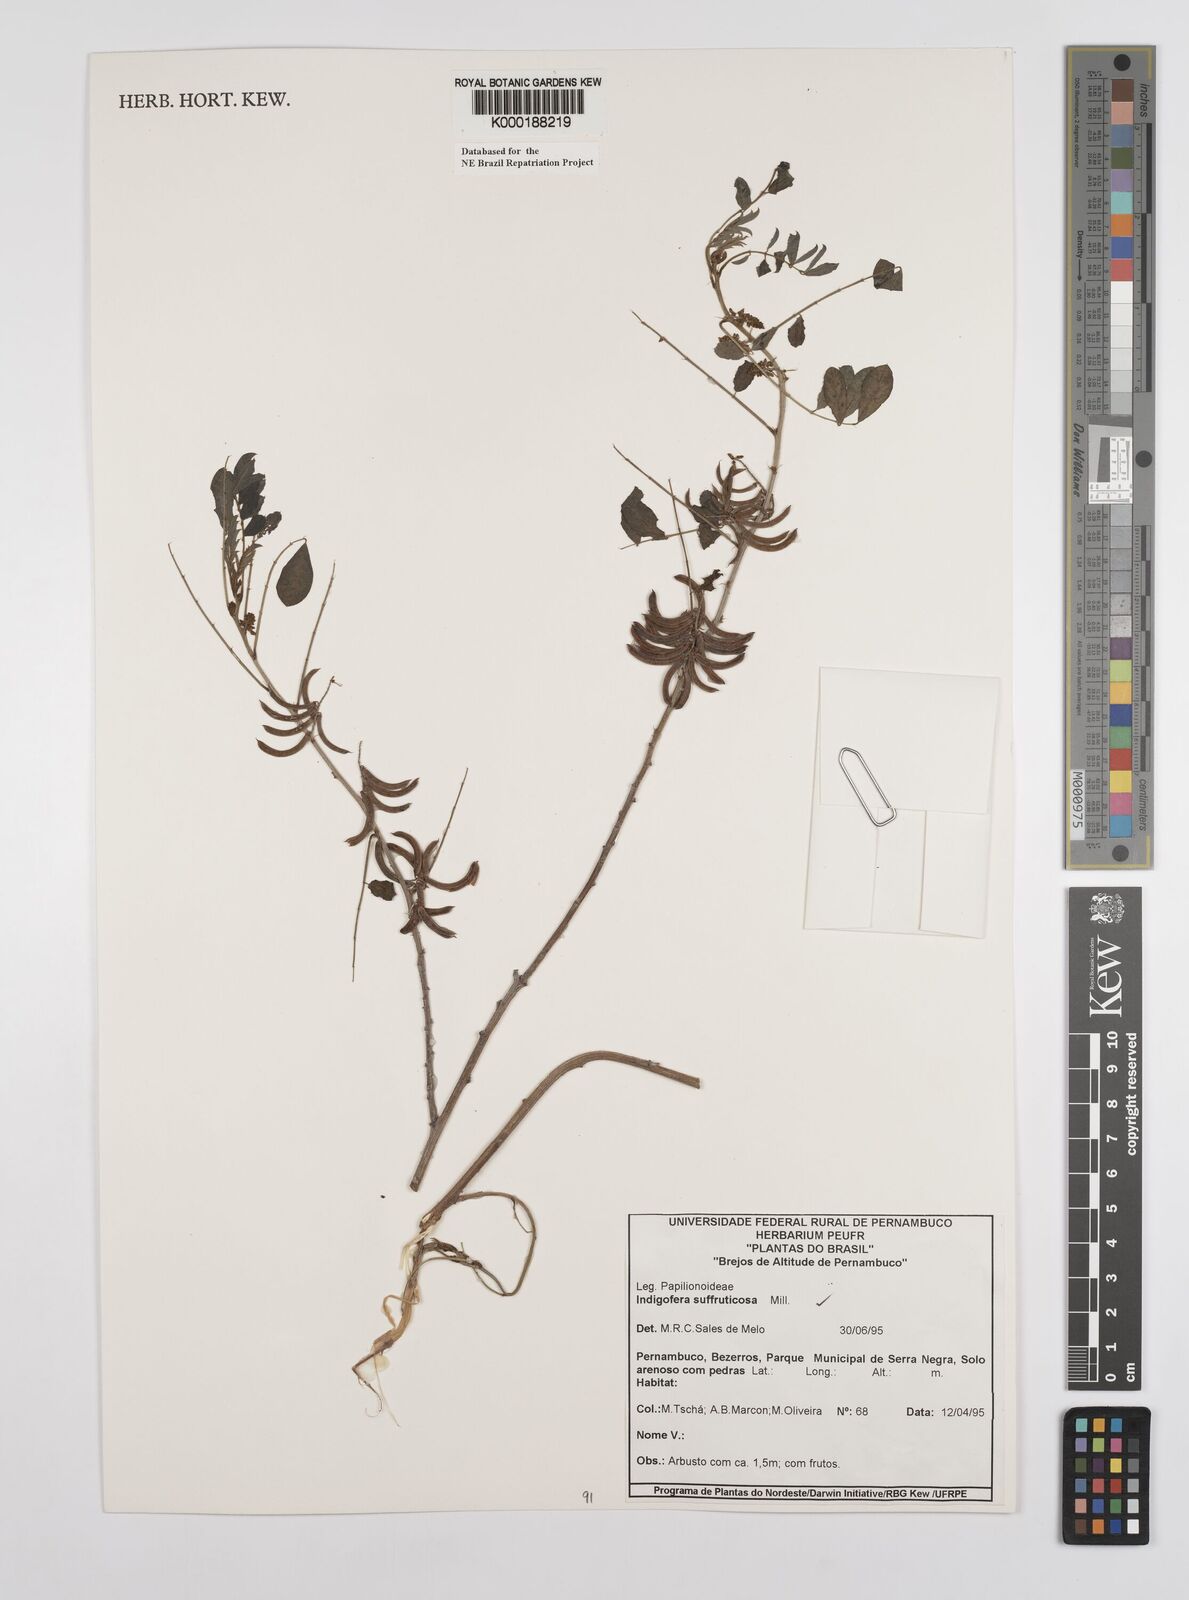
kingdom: Plantae
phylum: Tracheophyta
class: Magnoliopsida
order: Fabales
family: Fabaceae
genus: Indigofera
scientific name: Indigofera suffruticosa
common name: Anil de pasto
